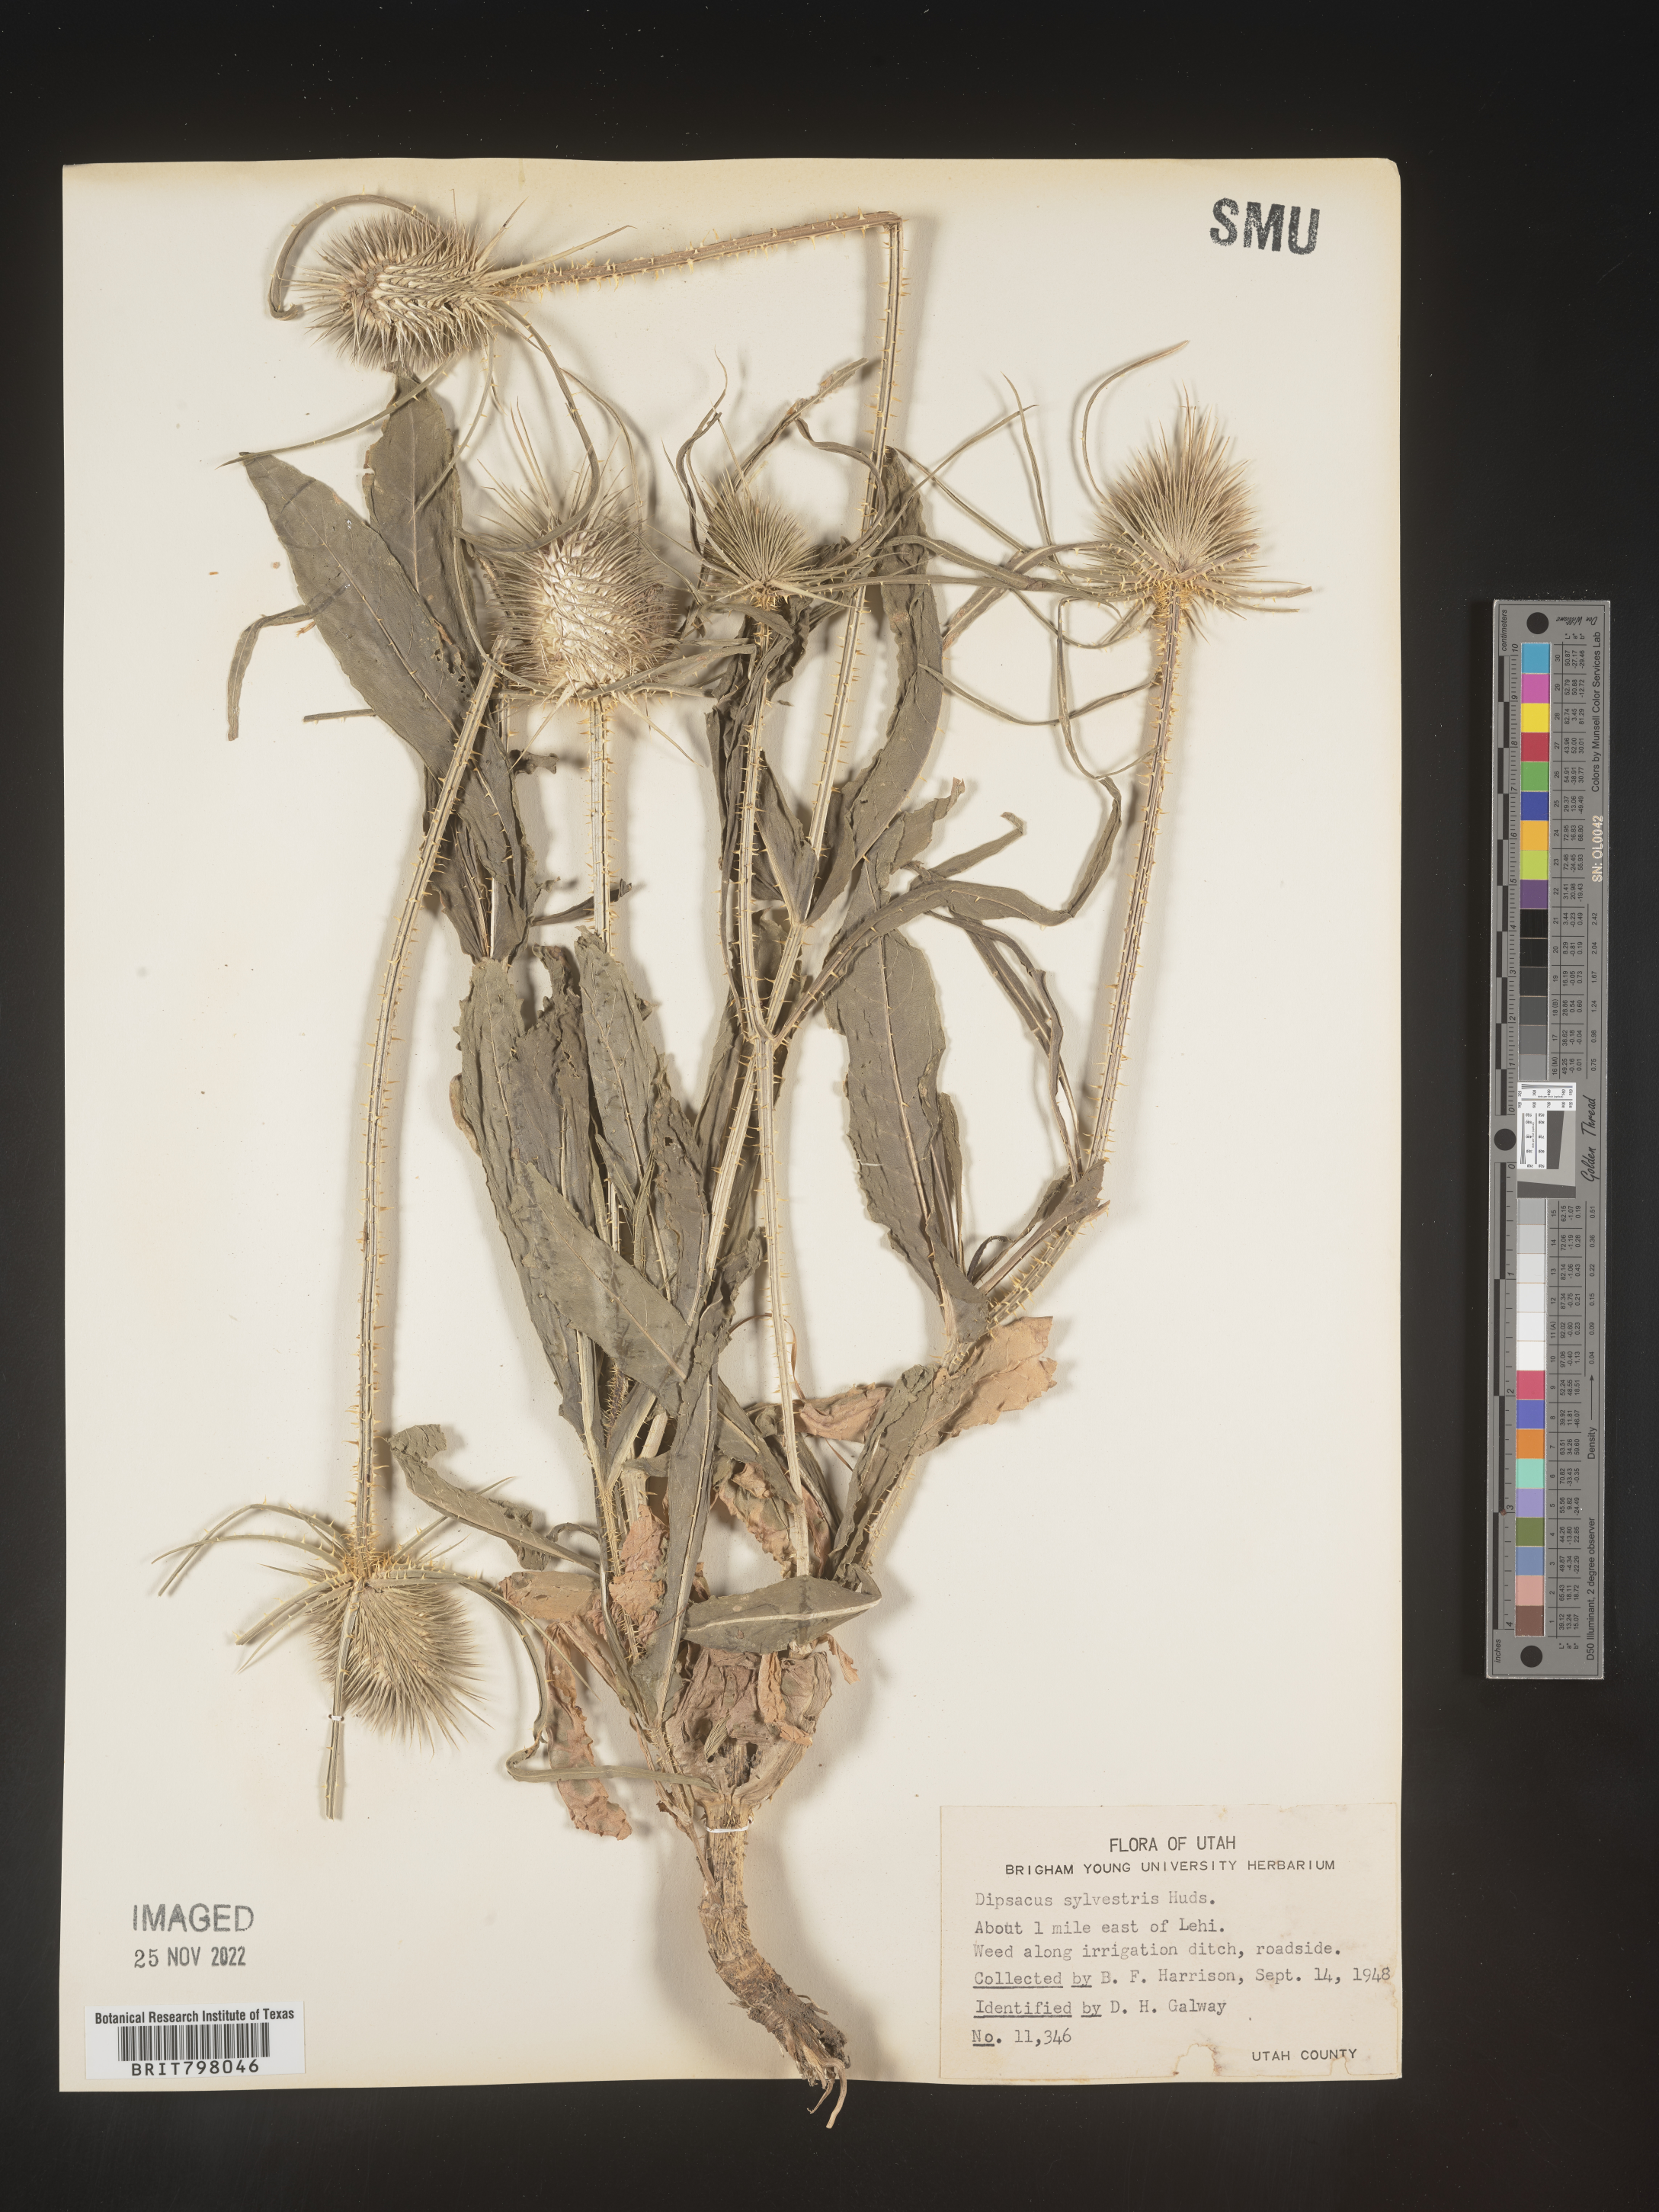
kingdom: Plantae
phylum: Tracheophyta
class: Magnoliopsida
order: Dipsacales
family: Caprifoliaceae
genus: Dipsacus
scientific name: Dipsacus fullonum
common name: Teasel
